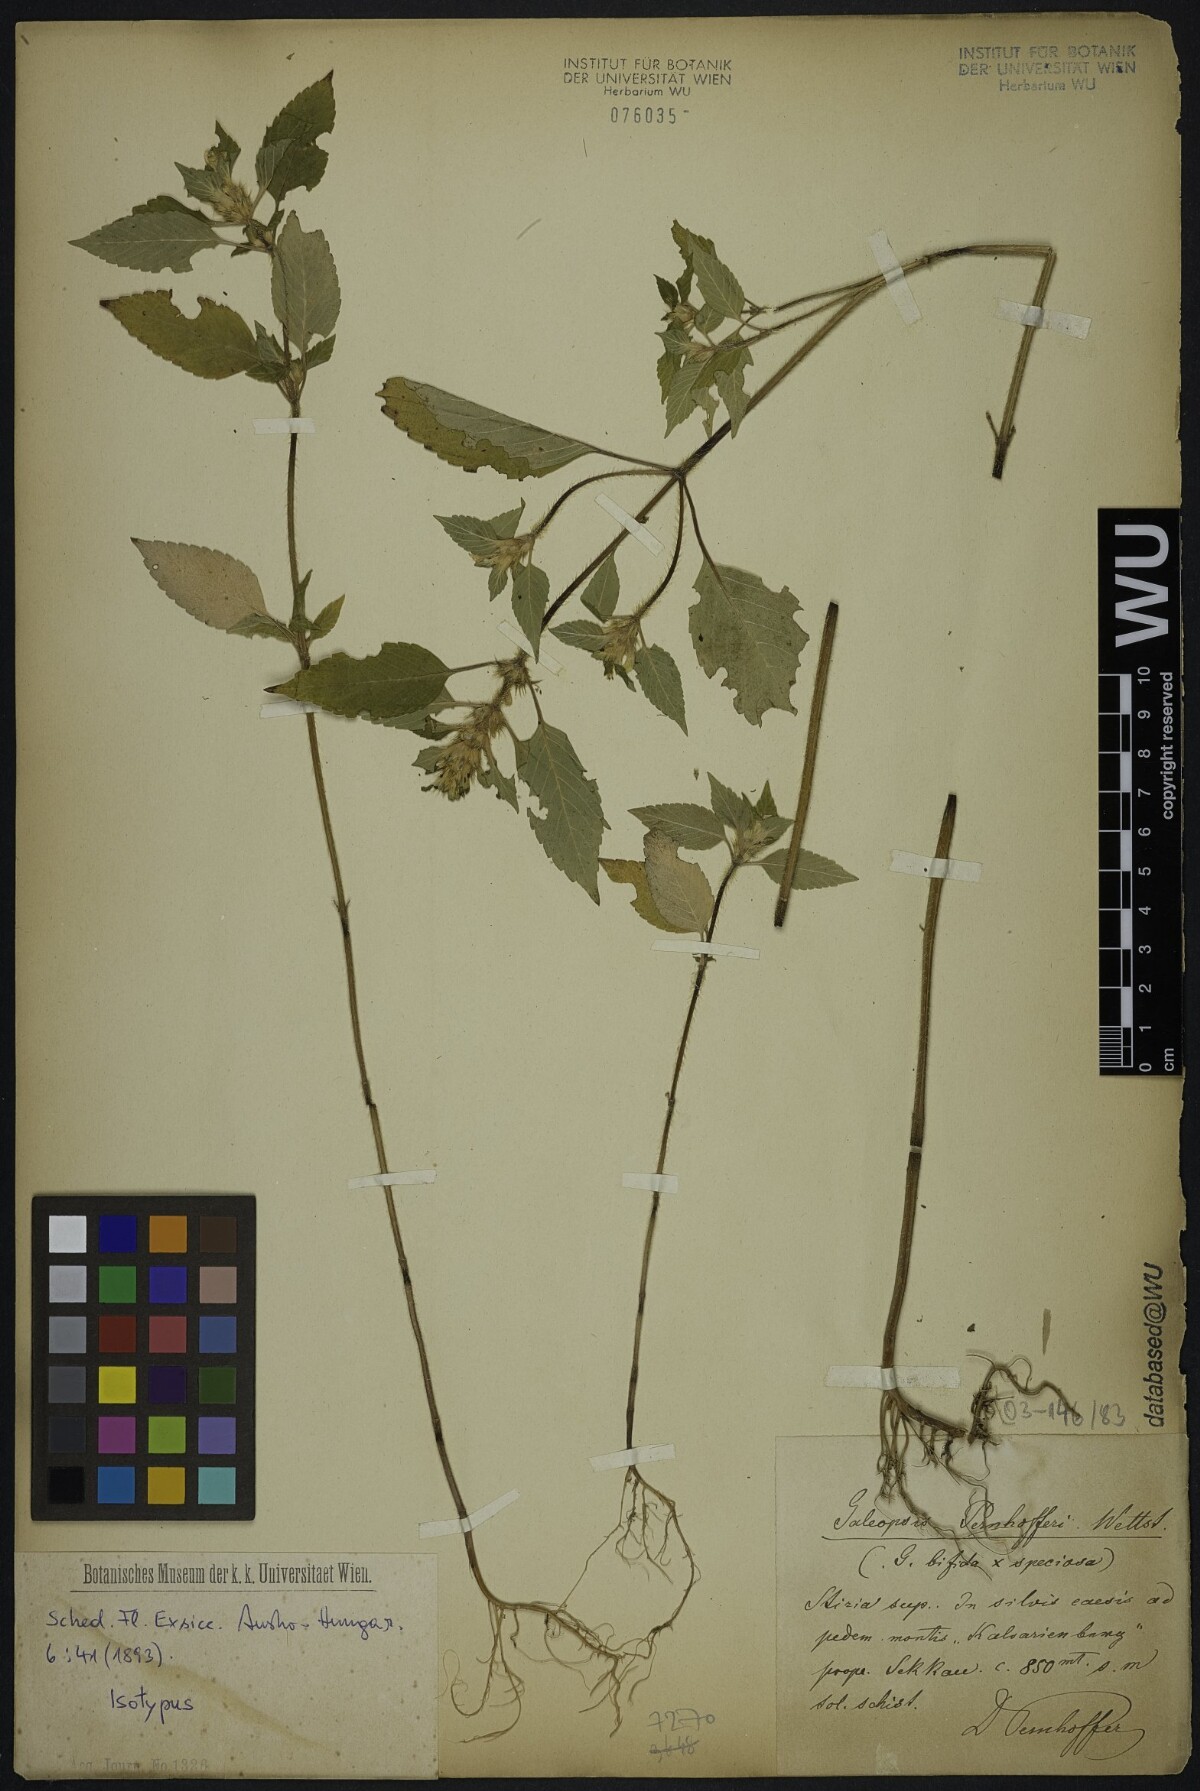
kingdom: Plantae
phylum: Tracheophyta
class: Magnoliopsida
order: Lamiales
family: Lamiaceae
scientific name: Lamiaceae
